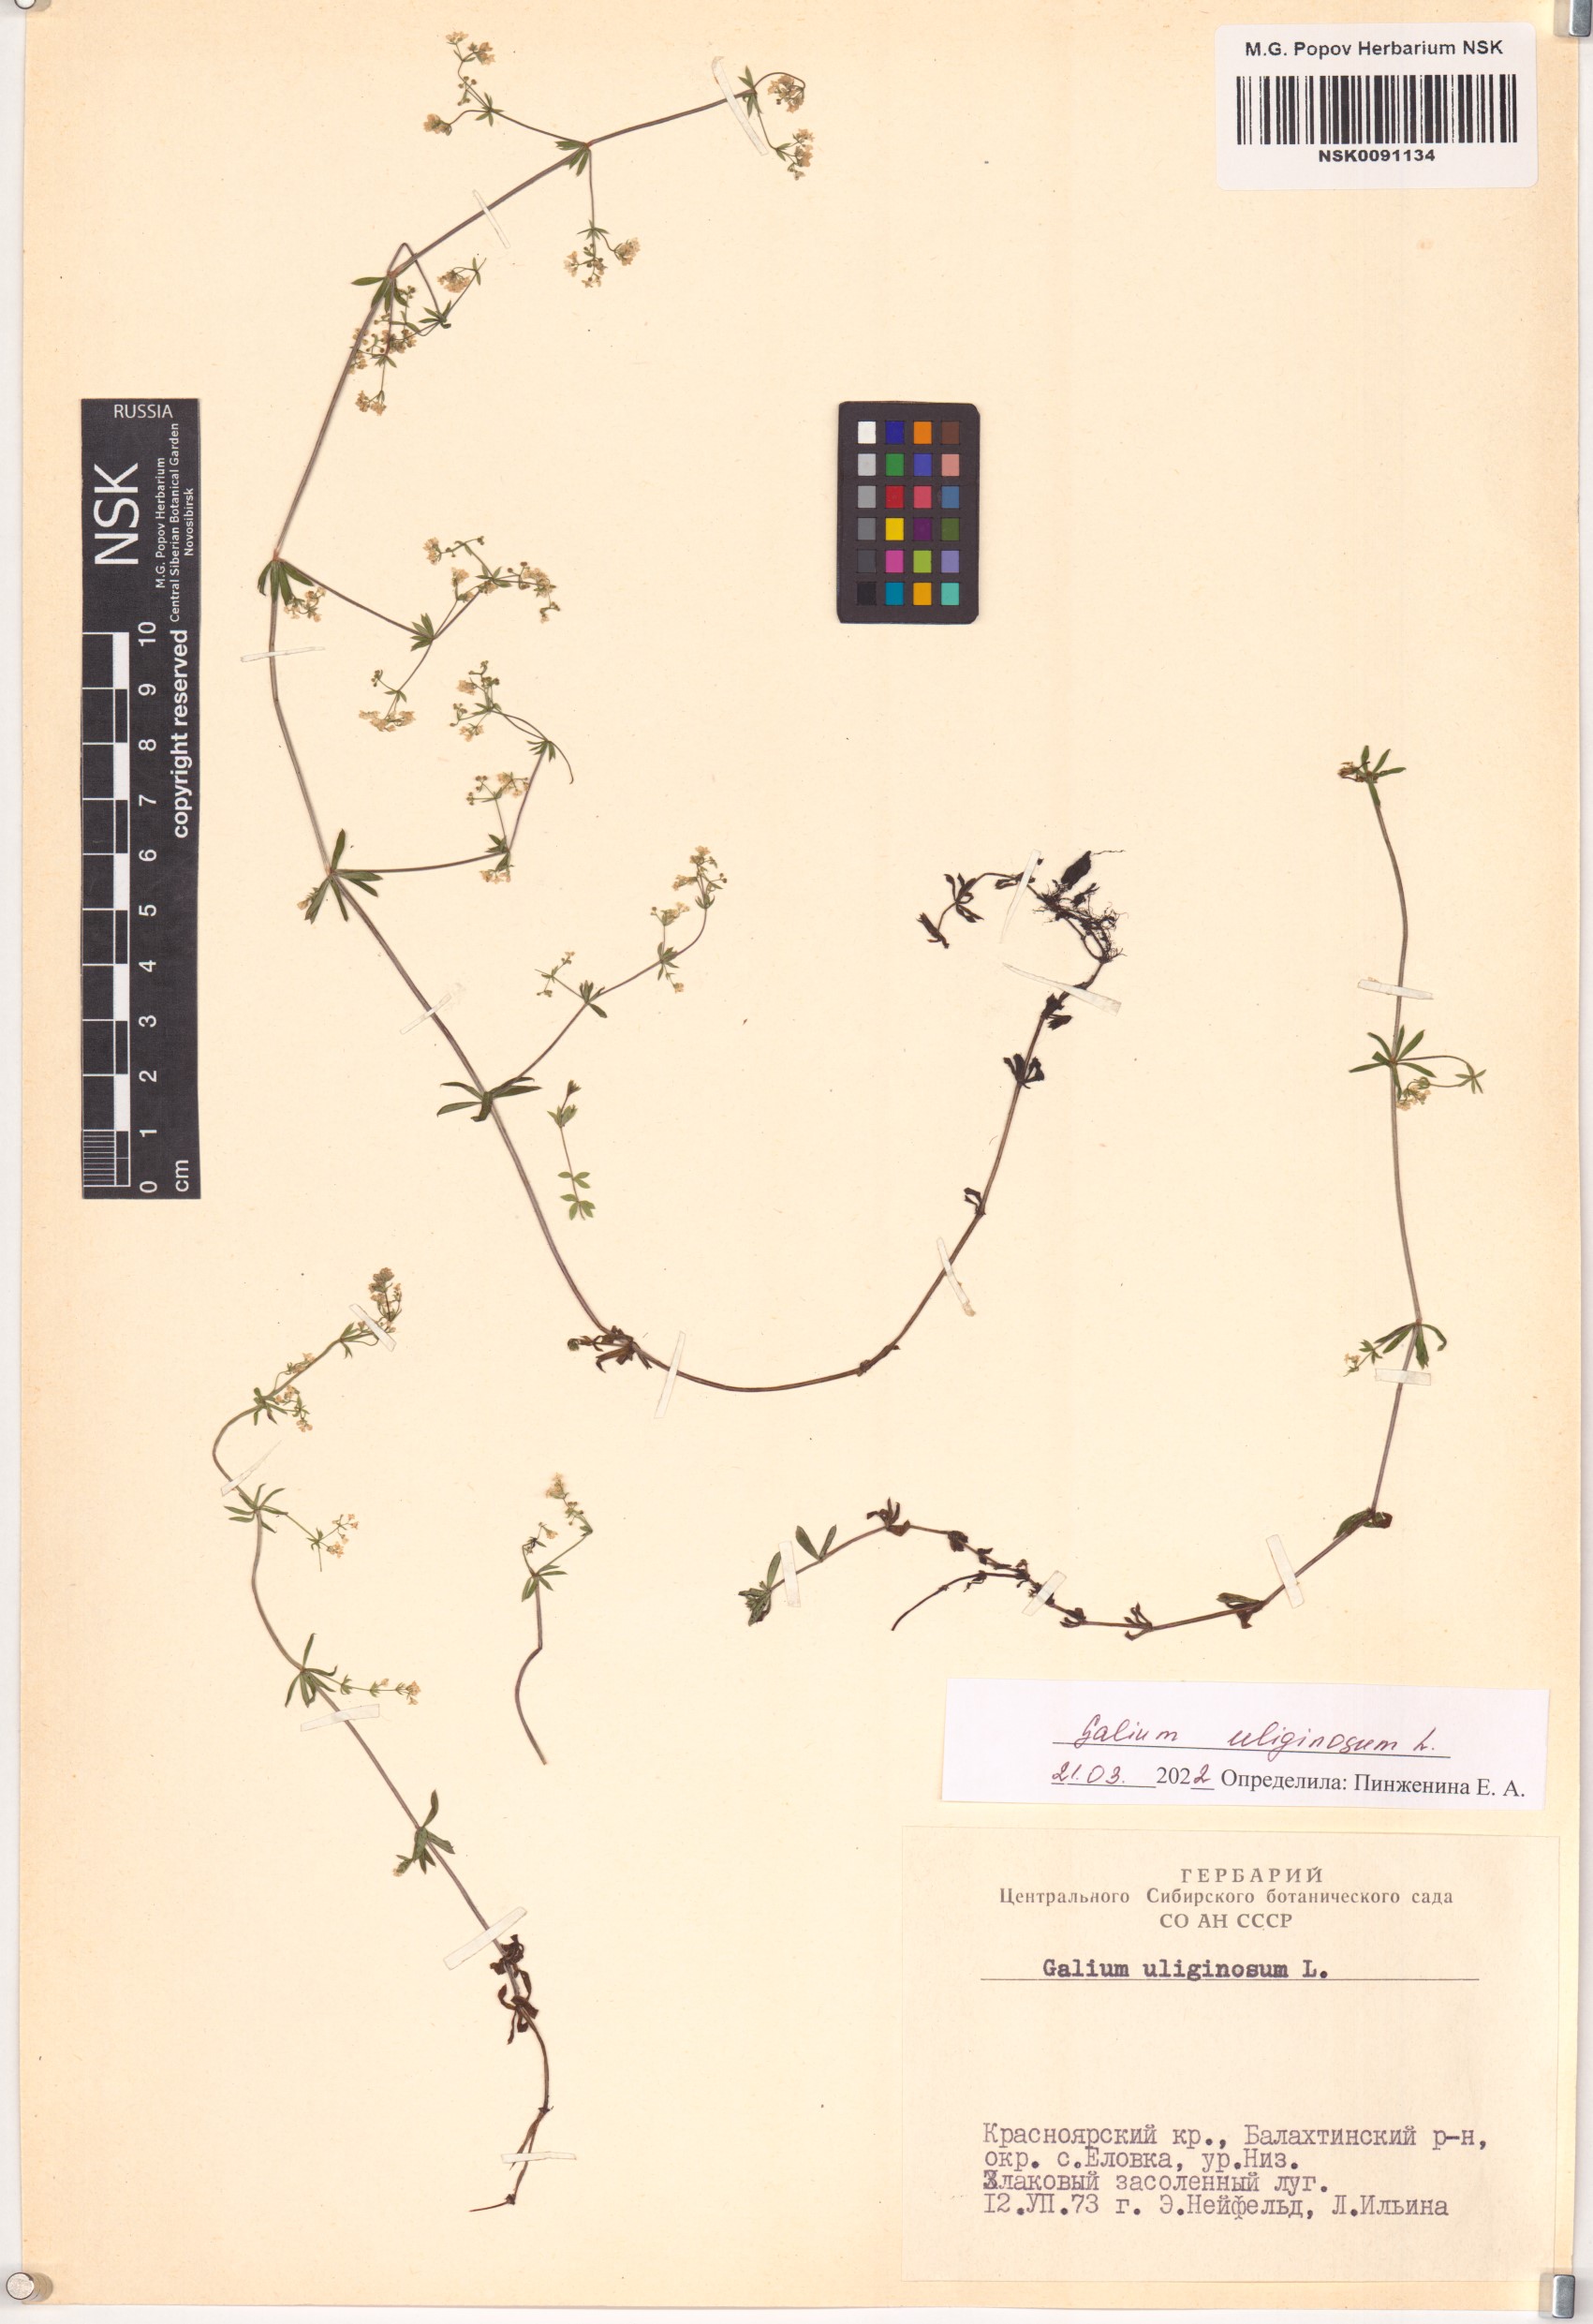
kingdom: Plantae
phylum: Tracheophyta
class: Magnoliopsida
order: Gentianales
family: Rubiaceae
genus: Galium
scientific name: Galium uliginosum
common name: Fen bedstraw
